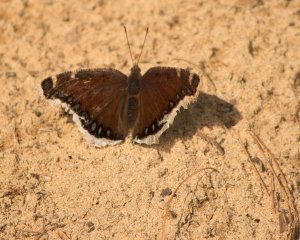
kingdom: Animalia
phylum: Arthropoda
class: Insecta
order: Lepidoptera
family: Nymphalidae
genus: Nymphalis
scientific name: Nymphalis antiopa
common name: Mourning Cloak
